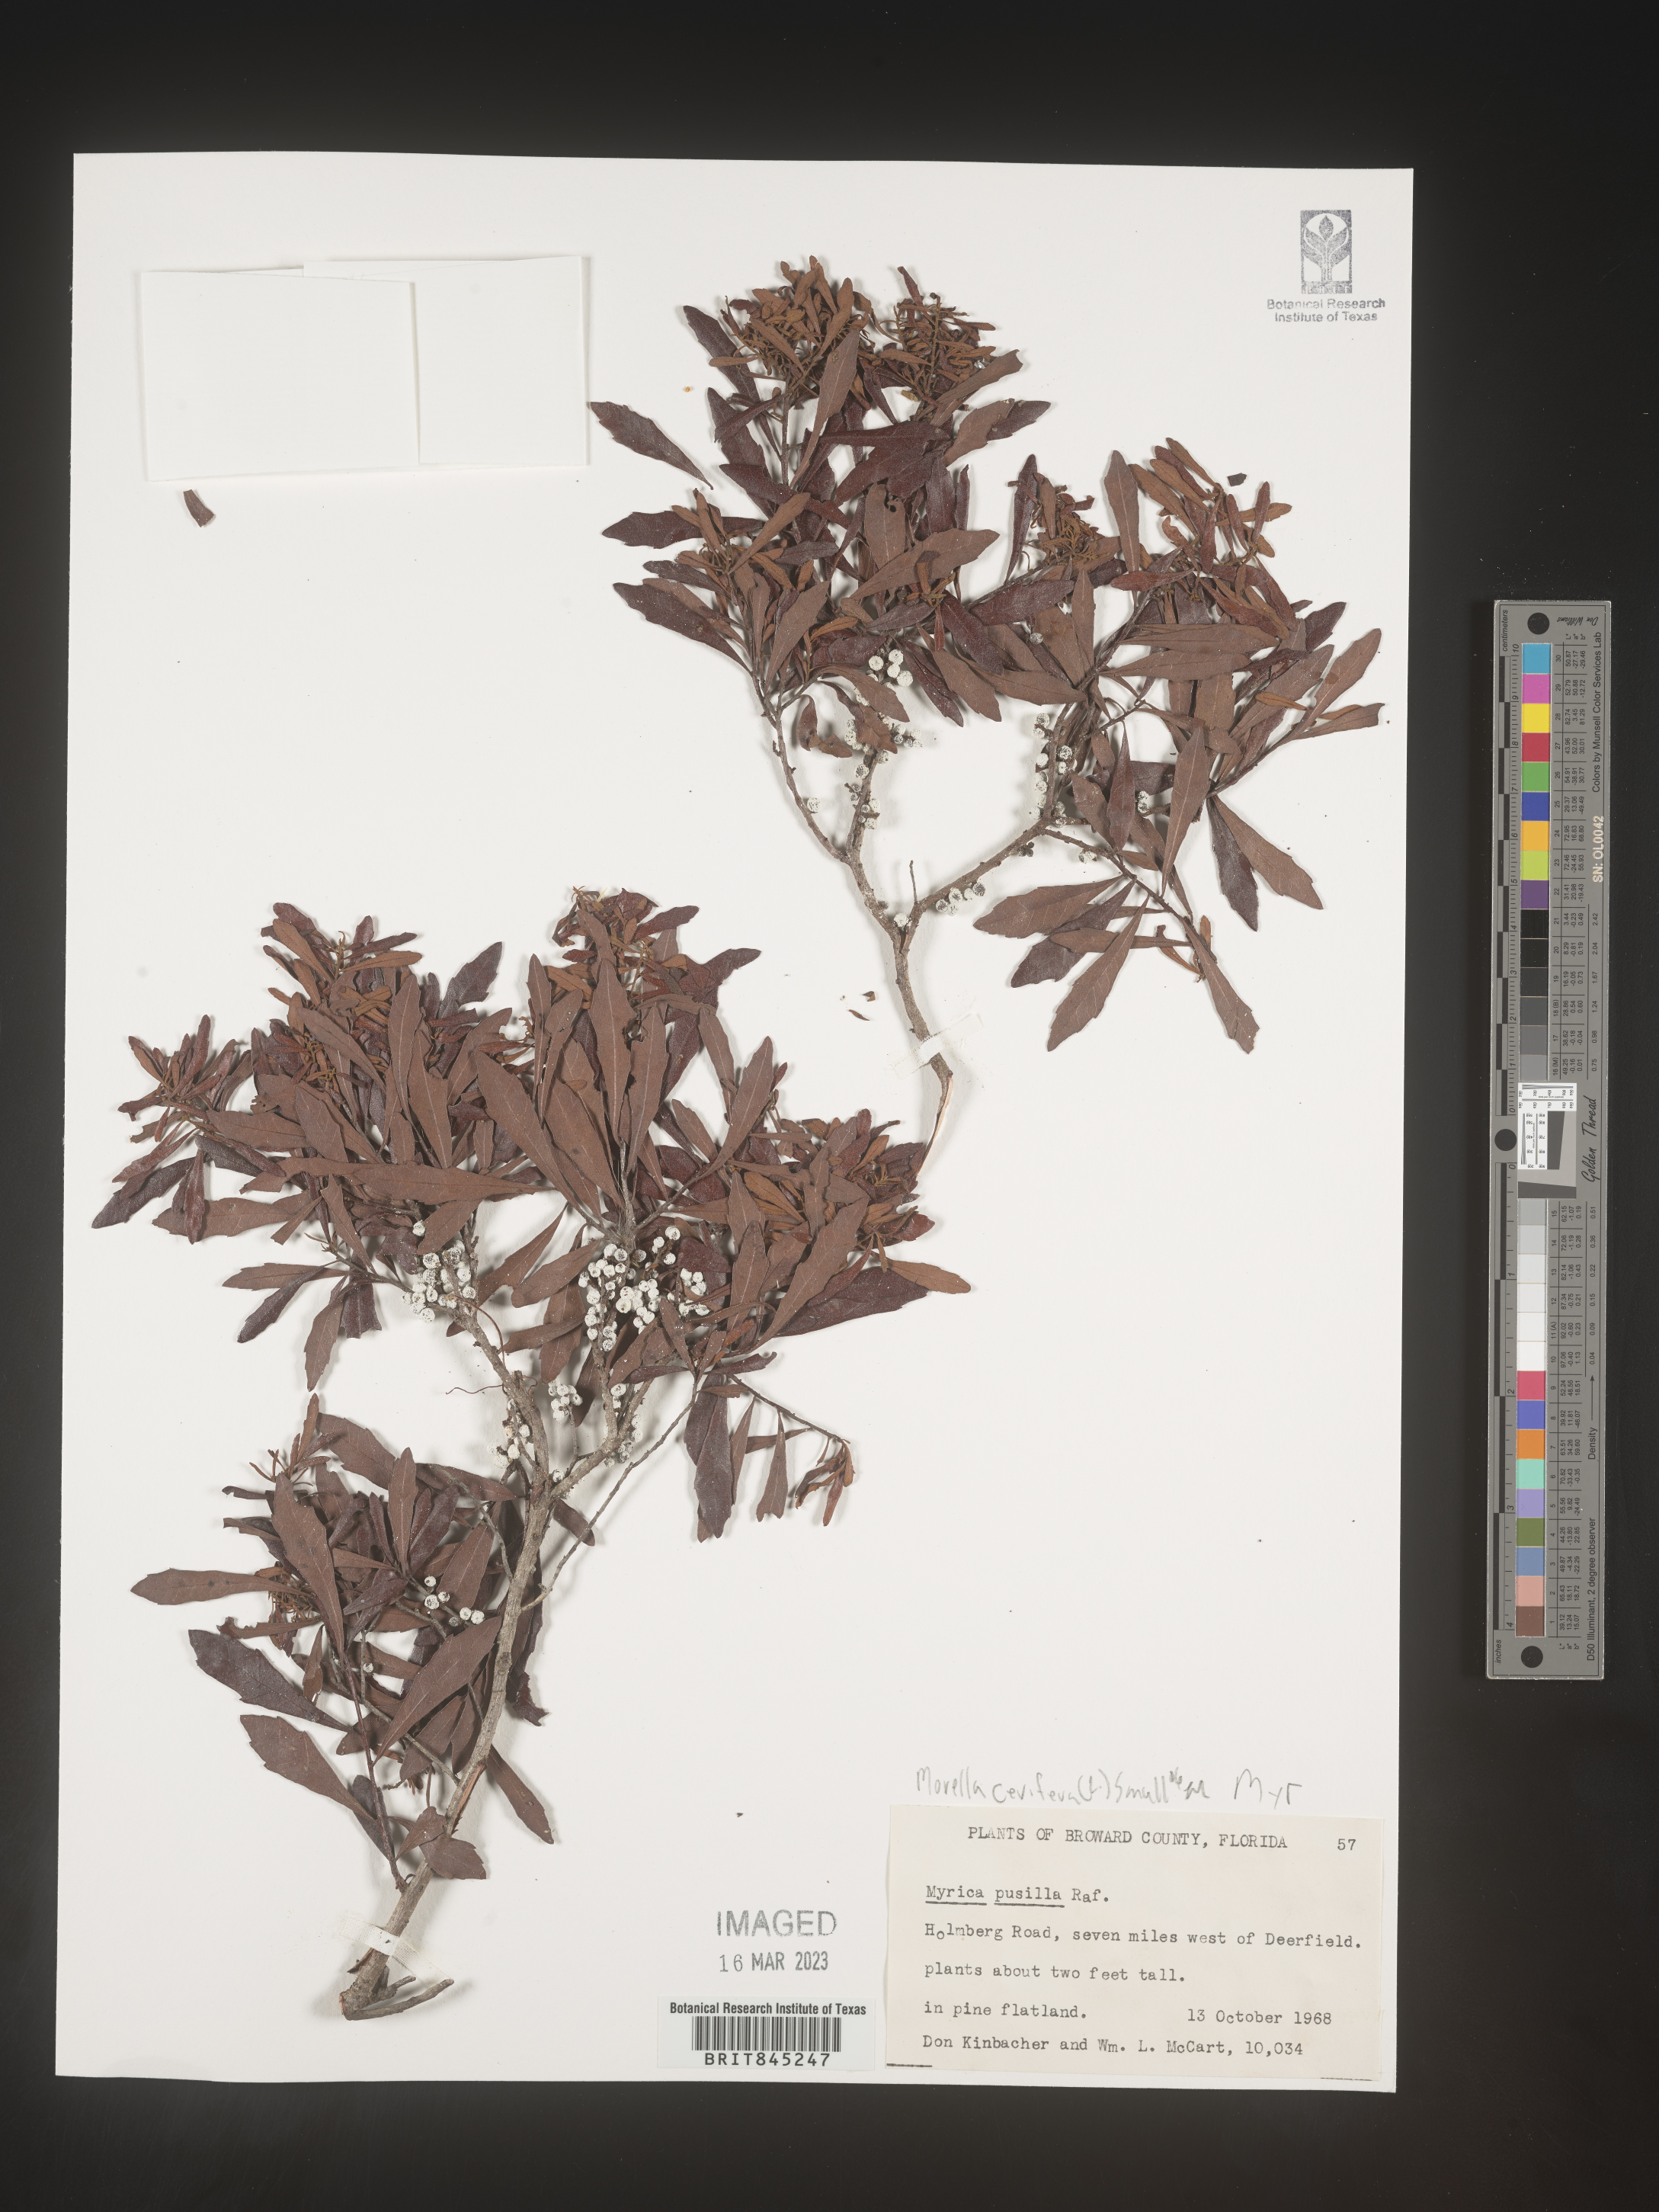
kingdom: Plantae
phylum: Tracheophyta
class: Magnoliopsida
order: Fagales
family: Myricaceae
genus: Morella
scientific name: Morella cerifera
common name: Wax myrtle
